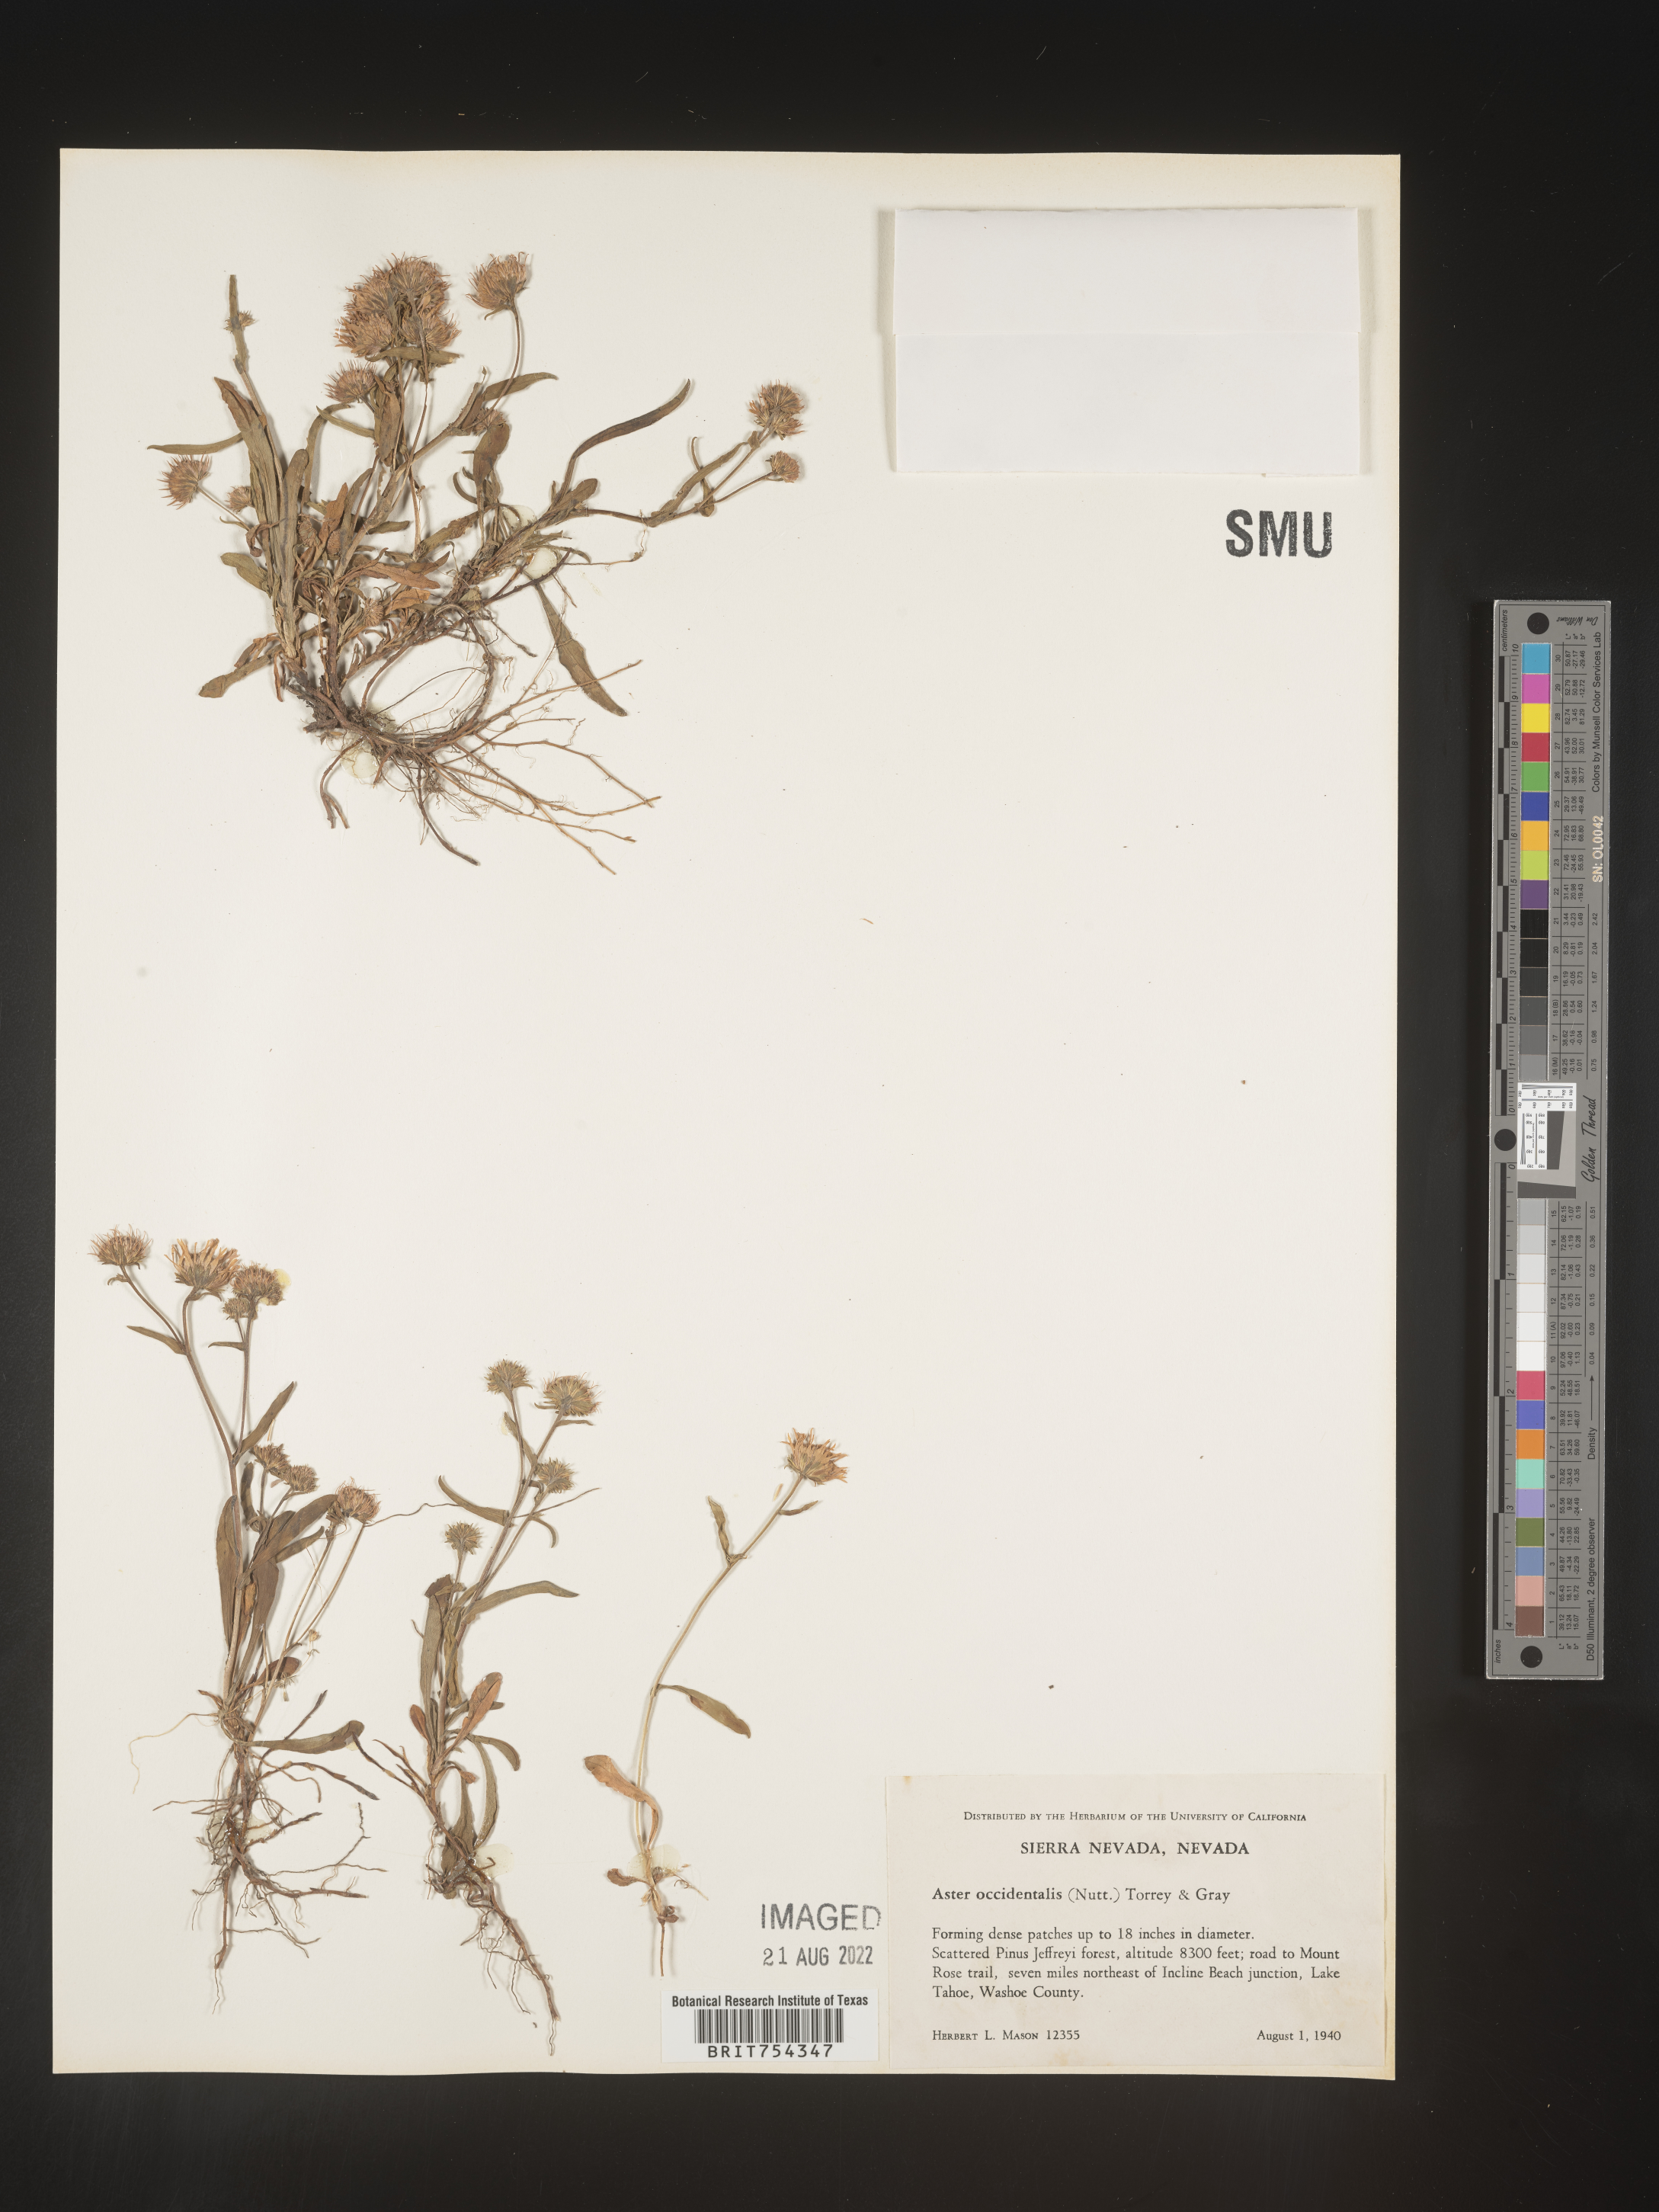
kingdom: Plantae
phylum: Tracheophyta
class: Magnoliopsida
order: Asterales
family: Asteraceae
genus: Symphyotrichum
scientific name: Symphyotrichum spathulatum
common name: Western mountain aster
